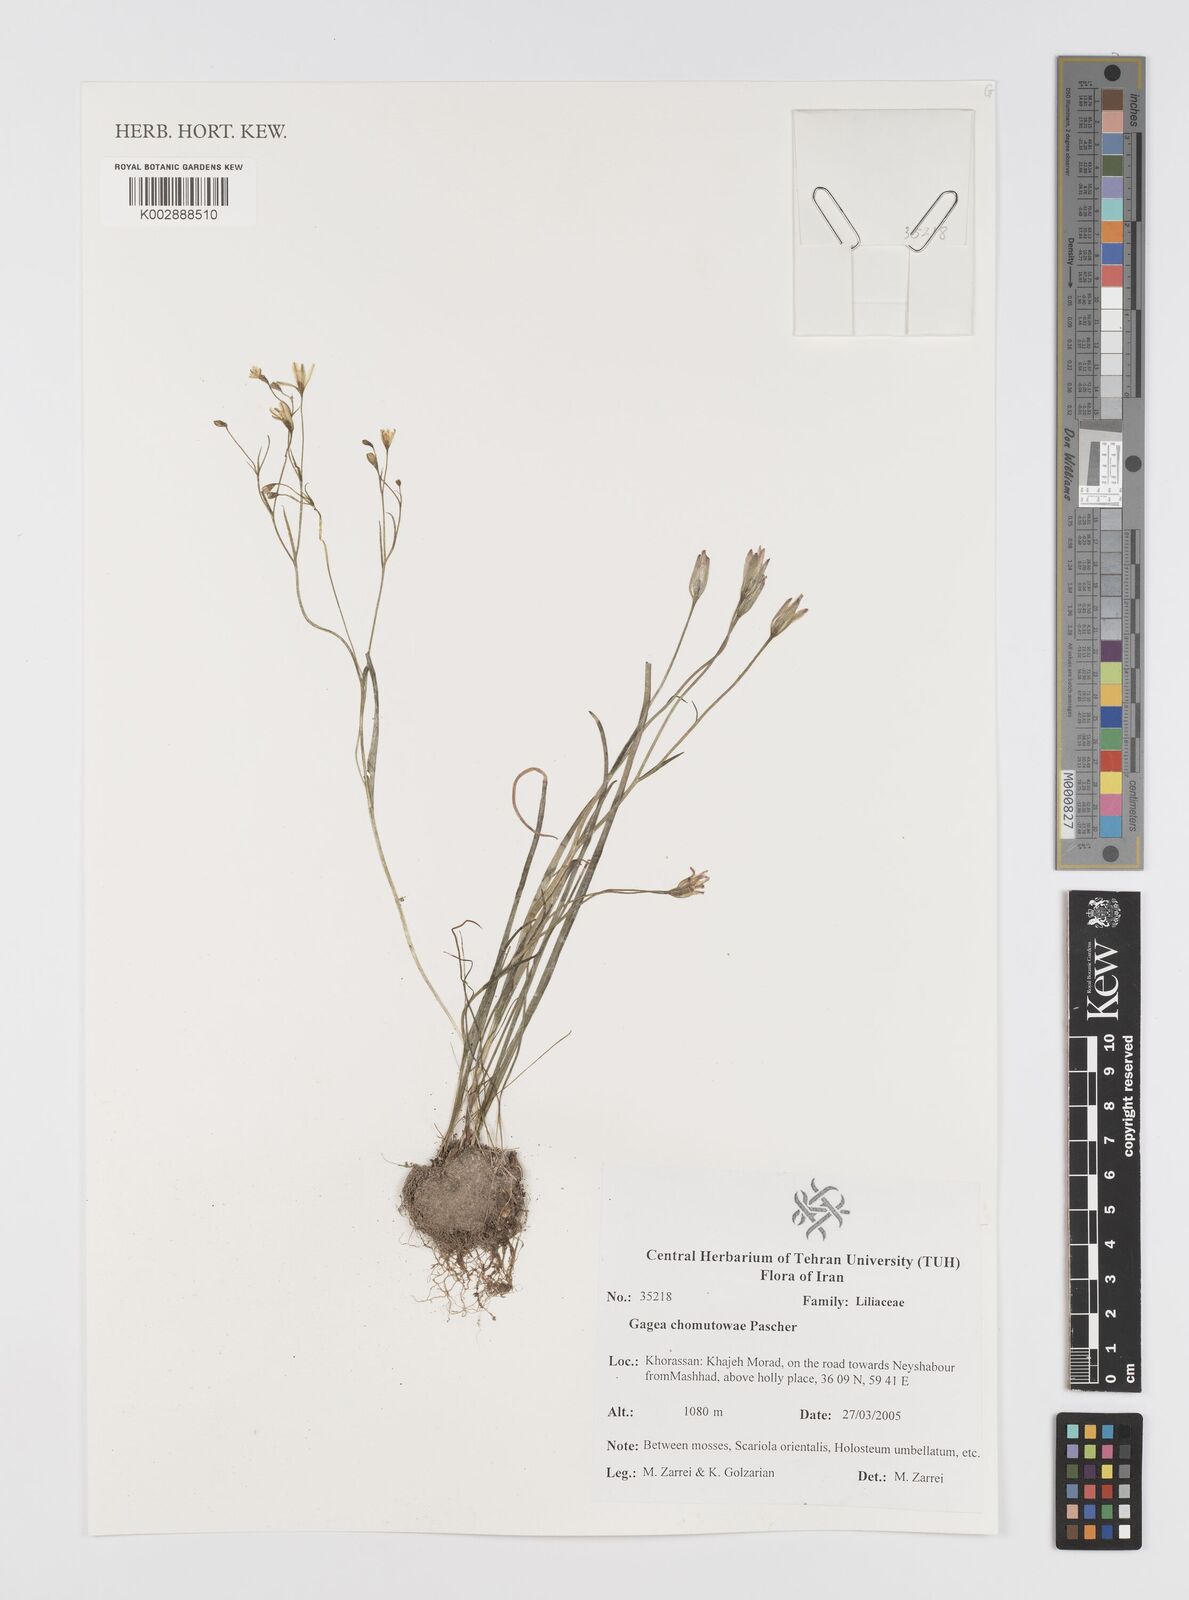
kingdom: Plantae
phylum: Tracheophyta
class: Liliopsida
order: Liliales
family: Liliaceae
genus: Gagea
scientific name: Gagea chomutovae
